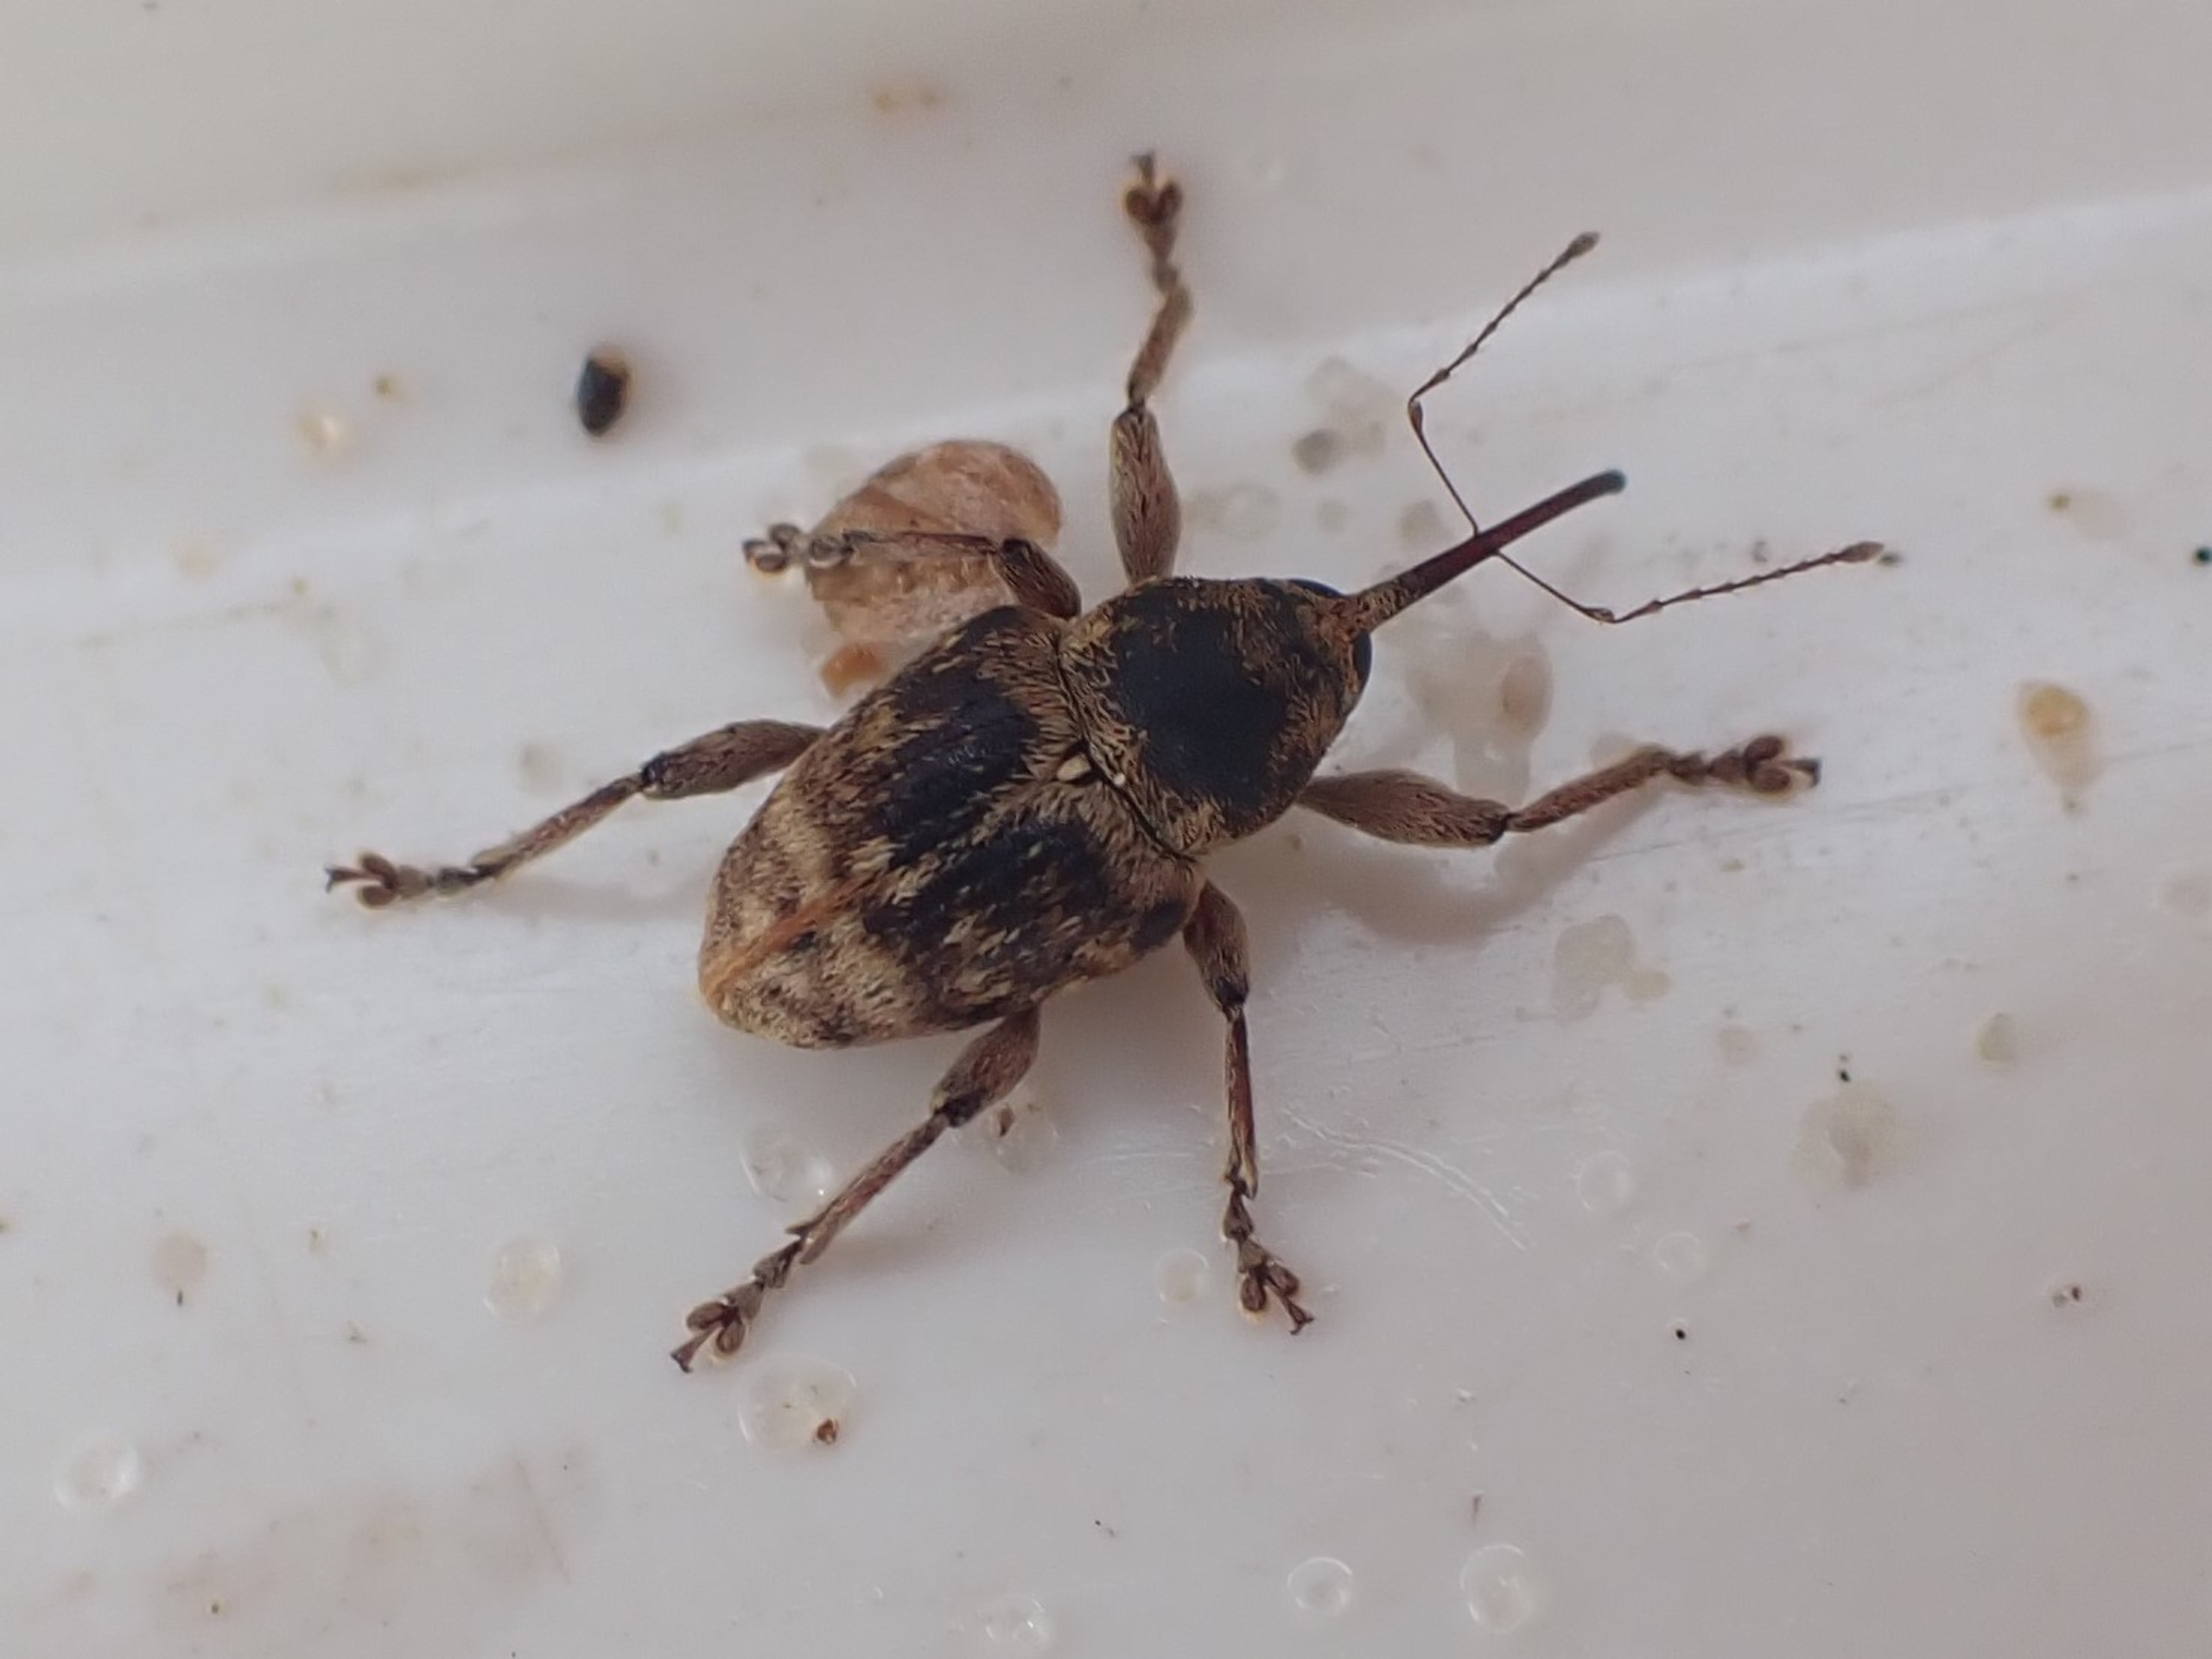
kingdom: Animalia
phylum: Arthropoda
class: Insecta
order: Coleoptera
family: Curculionidae
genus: Curculio
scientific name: Curculio venosus
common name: Agernsnudebille
